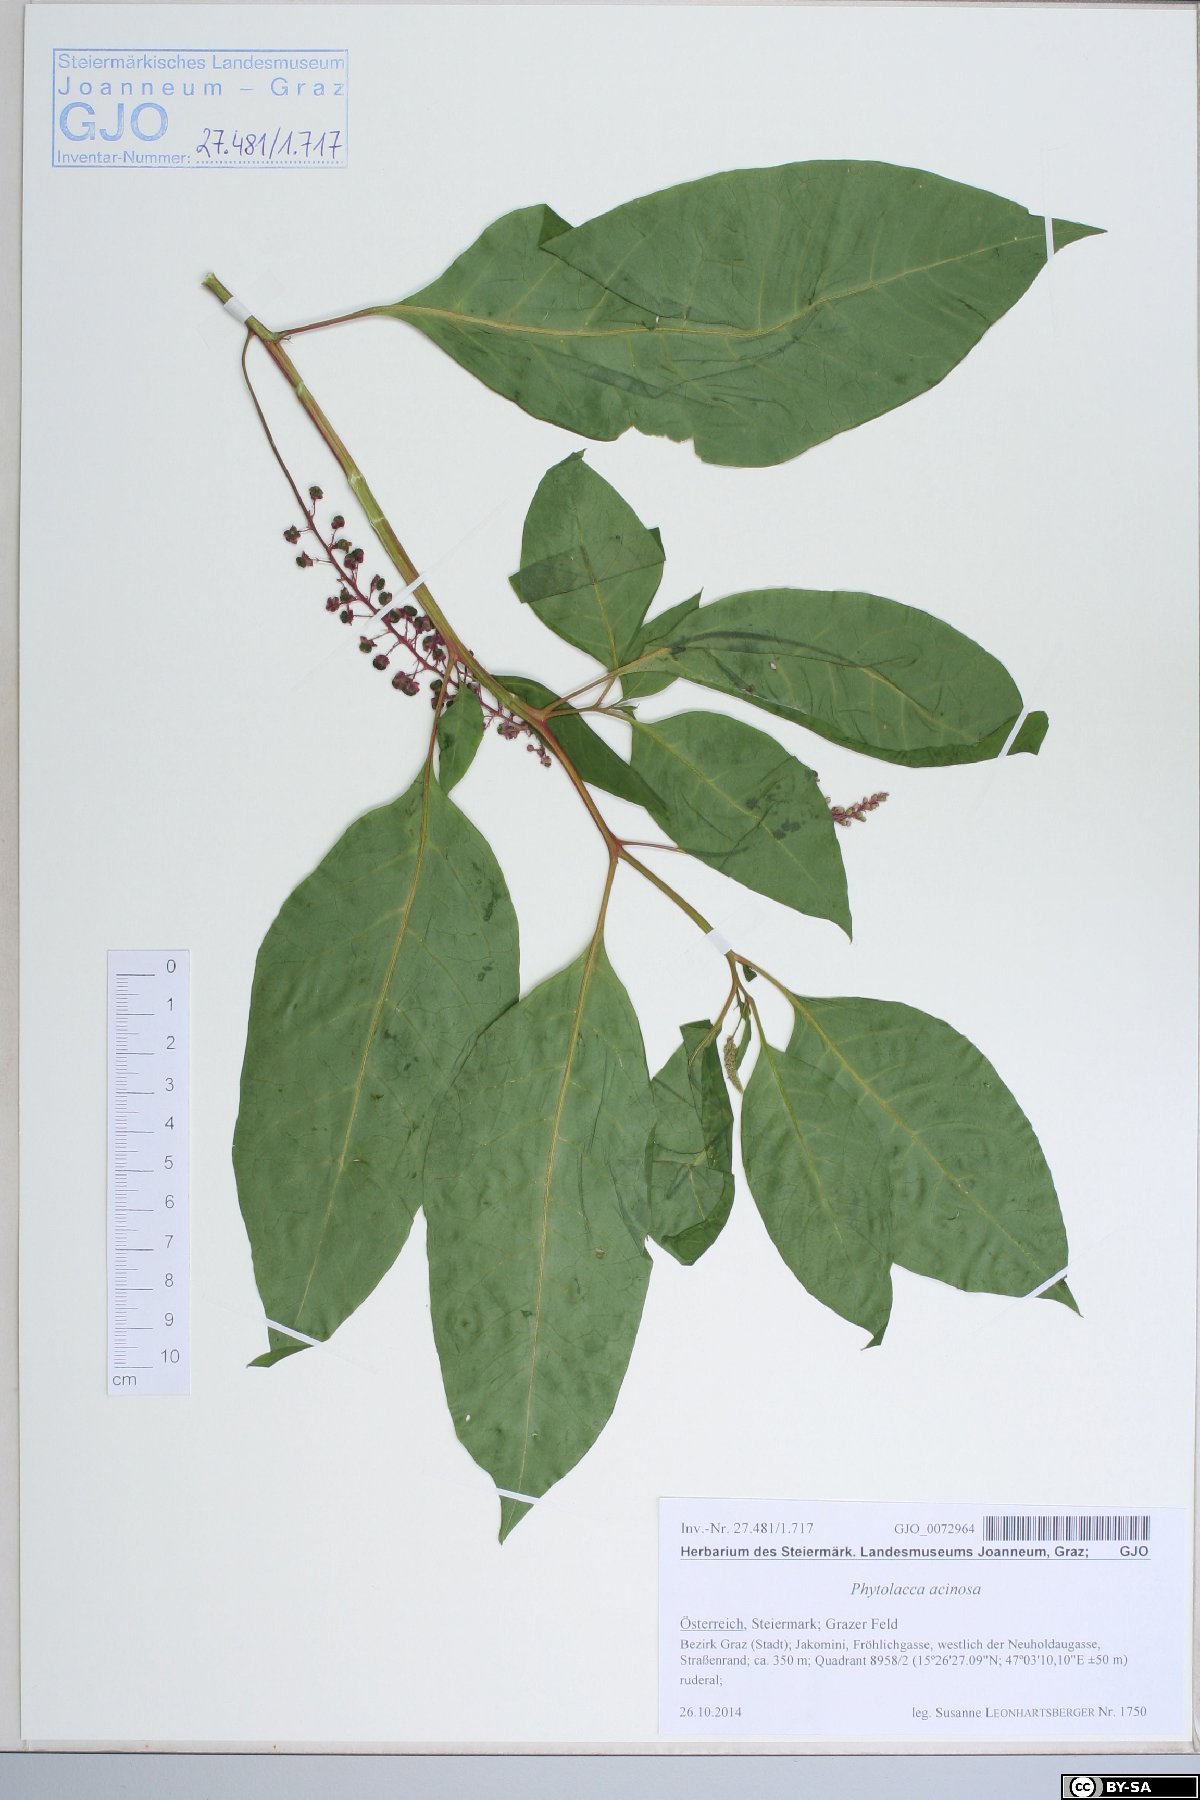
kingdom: Plantae
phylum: Tracheophyta
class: Magnoliopsida
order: Caryophyllales
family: Phytolaccaceae
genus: Phytolacca
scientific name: Phytolacca acinosa
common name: Indian pokeweed
